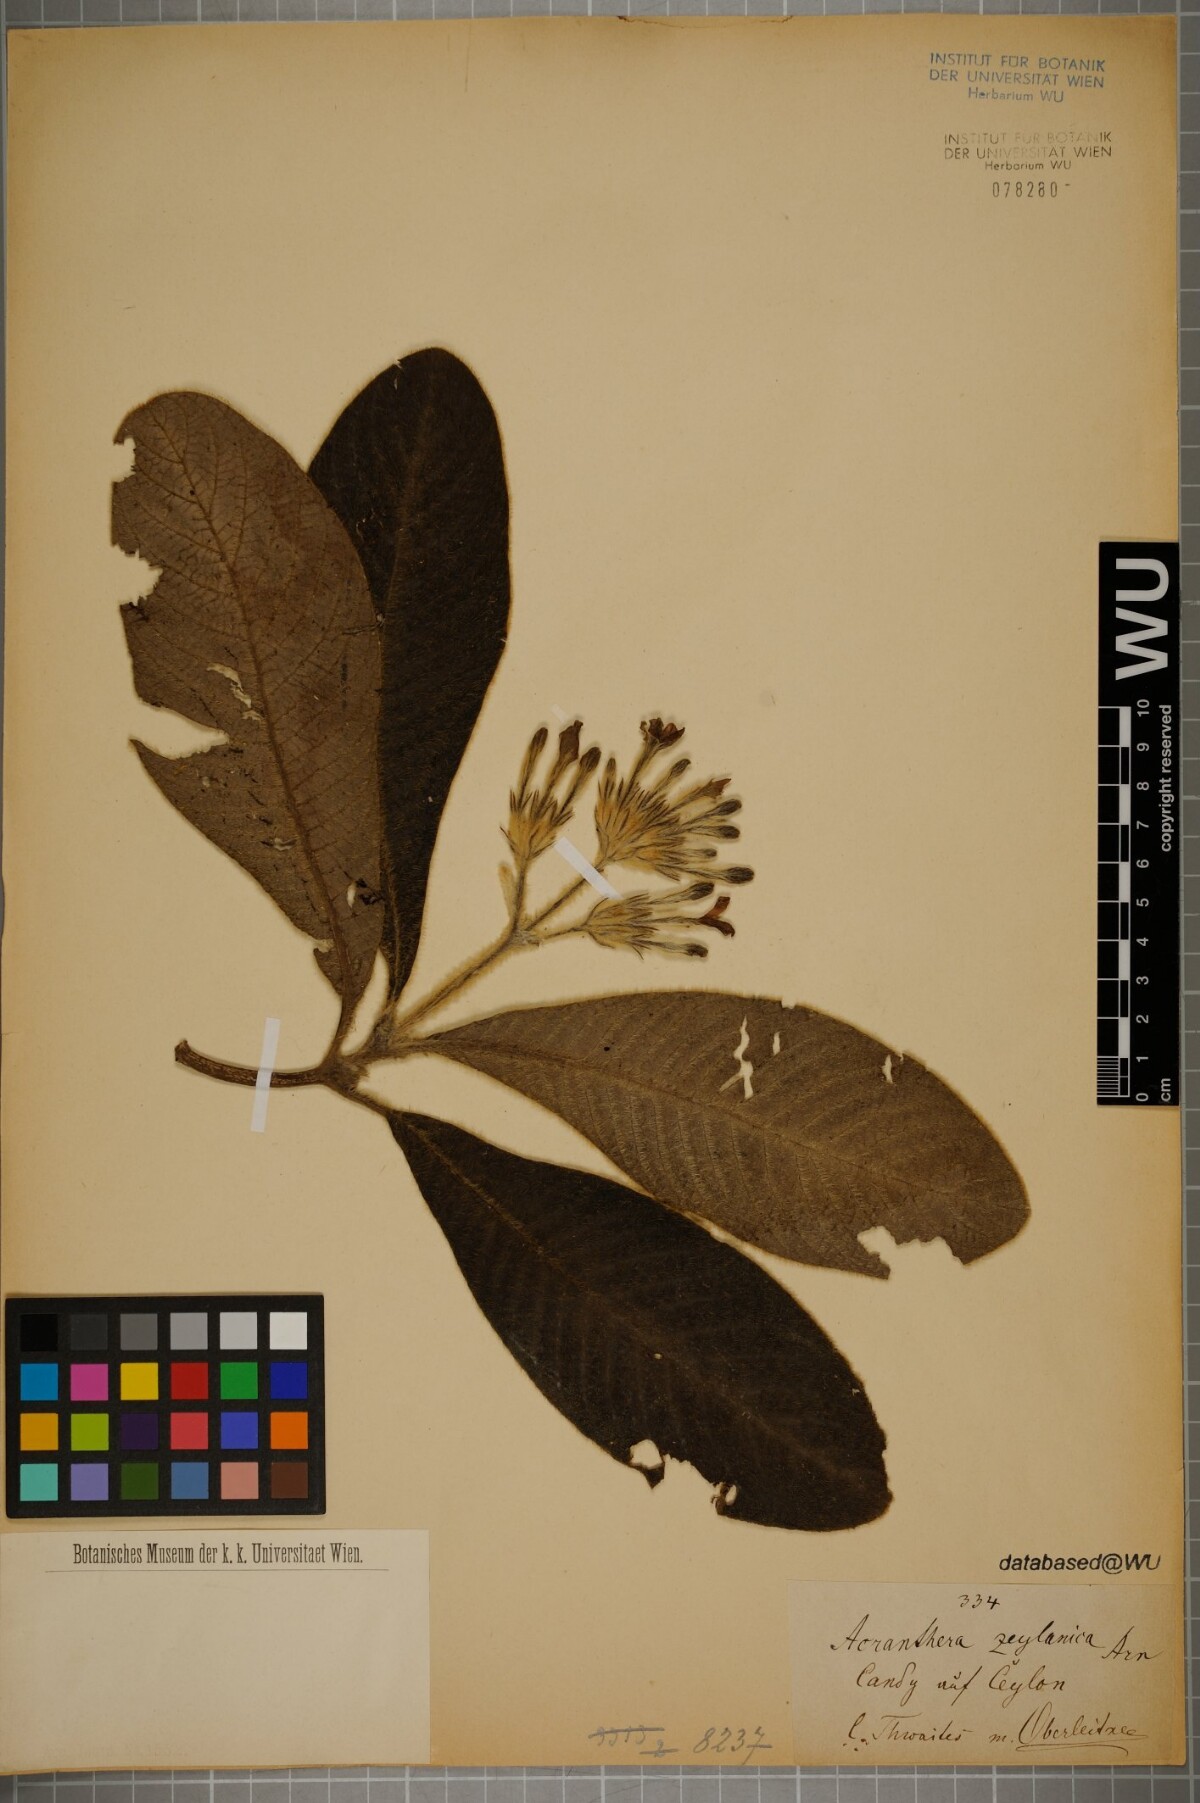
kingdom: Plantae
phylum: Tracheophyta
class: Magnoliopsida
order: Gentianales
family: Rubiaceae
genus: Acranthera
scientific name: Acranthera ceylanica
